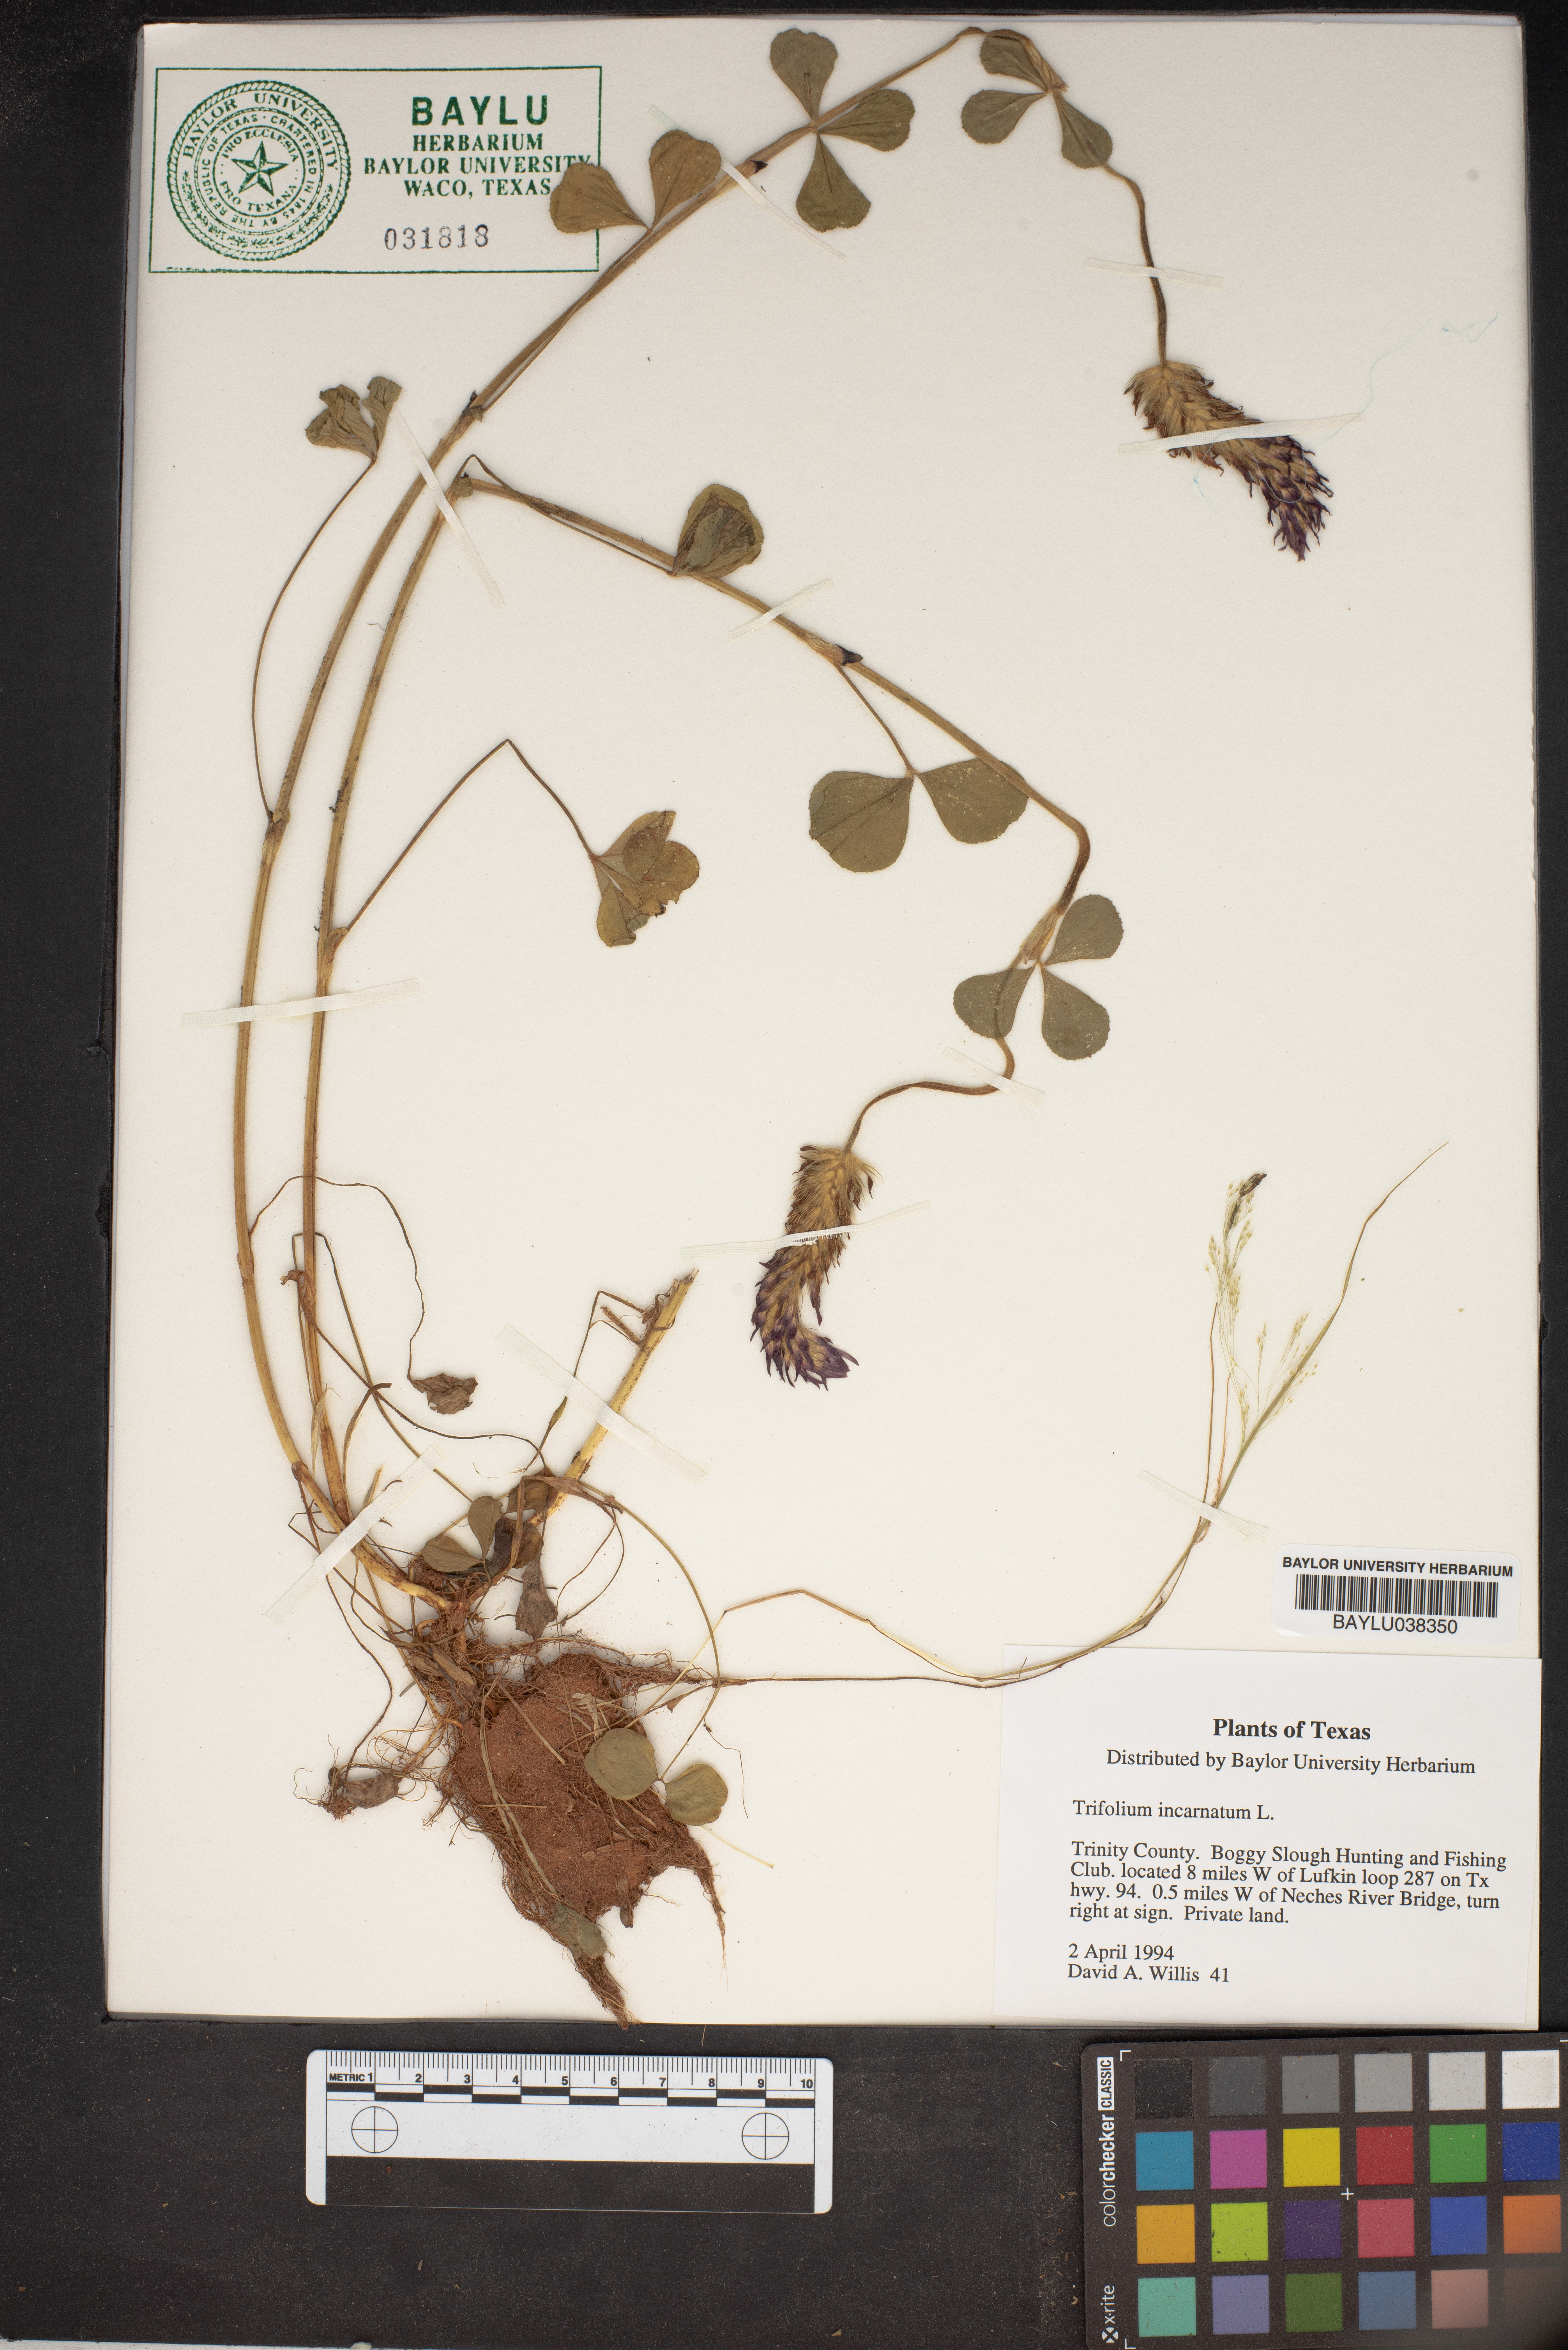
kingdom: Plantae
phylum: Tracheophyta
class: Magnoliopsida
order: Fabales
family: Fabaceae
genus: Trifolium
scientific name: Trifolium incarnatum
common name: Crimson clover
